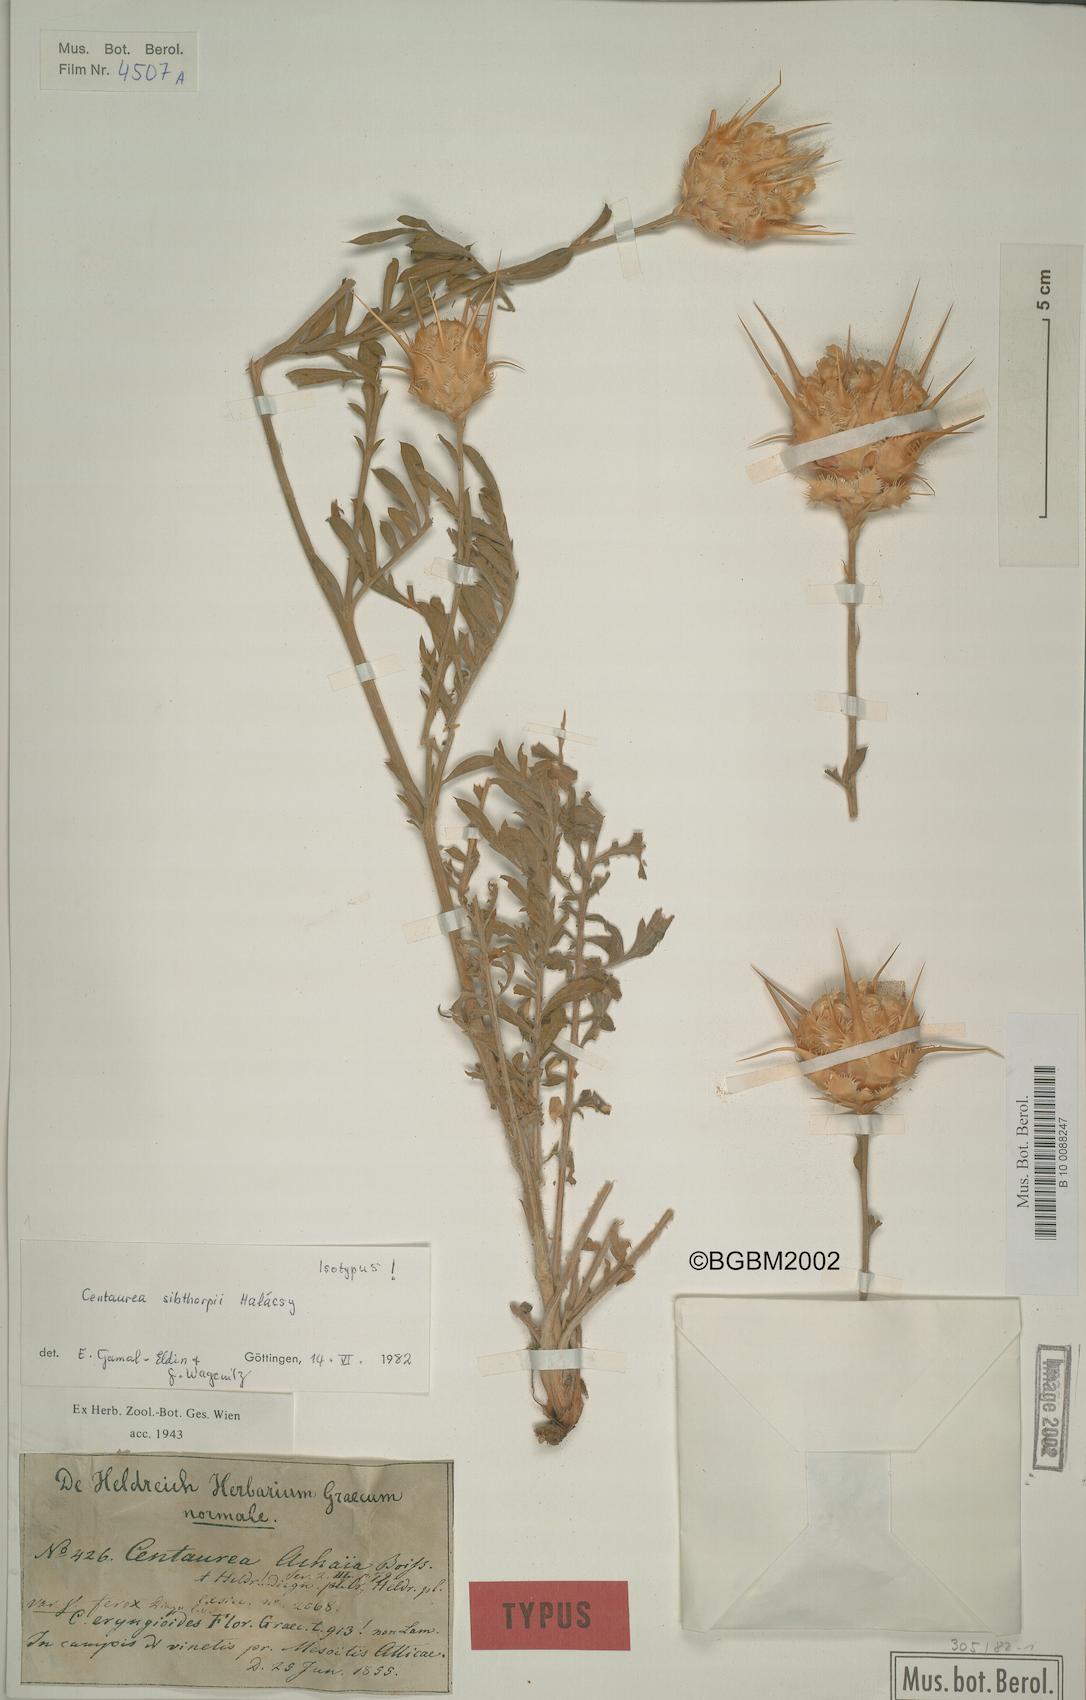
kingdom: Plantae
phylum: Tracheophyta
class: Magnoliopsida
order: Asterales
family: Asteraceae
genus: Centaurea
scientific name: Centaurea achaia
